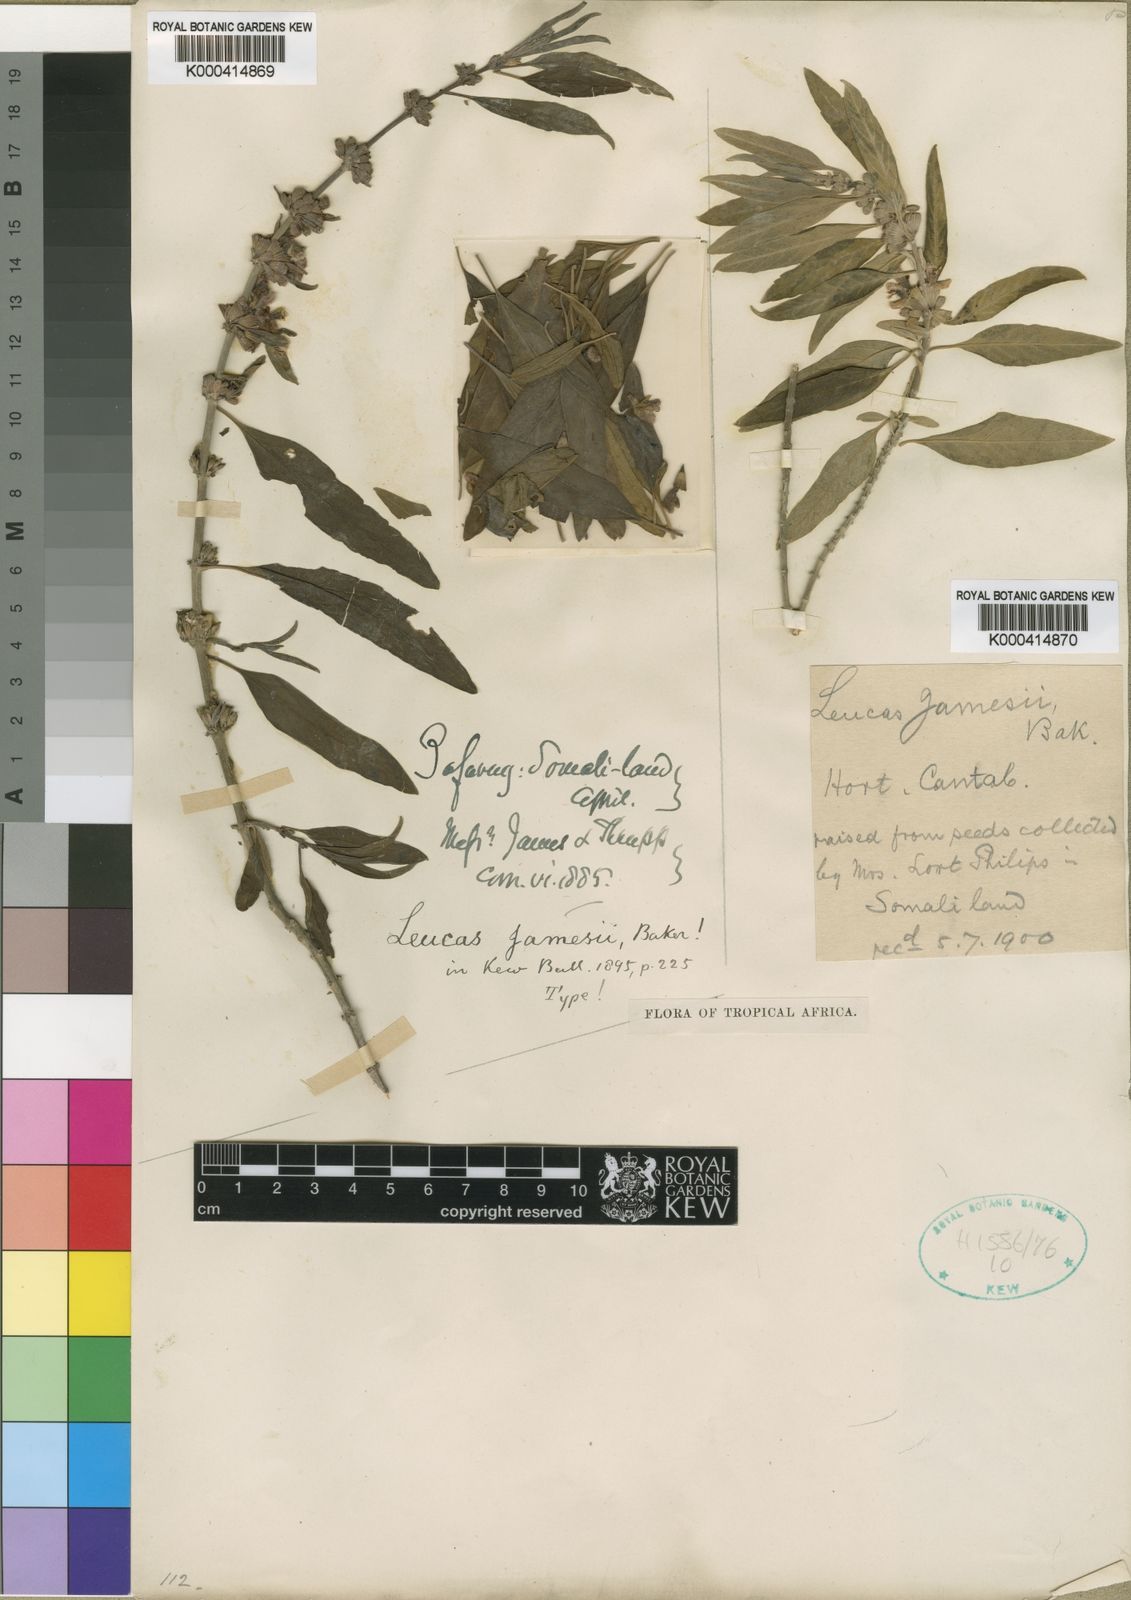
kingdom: Plantae
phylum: Tracheophyta
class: Magnoliopsida
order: Lamiales
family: Lamiaceae
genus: Leucas
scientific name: Leucas jamesii
